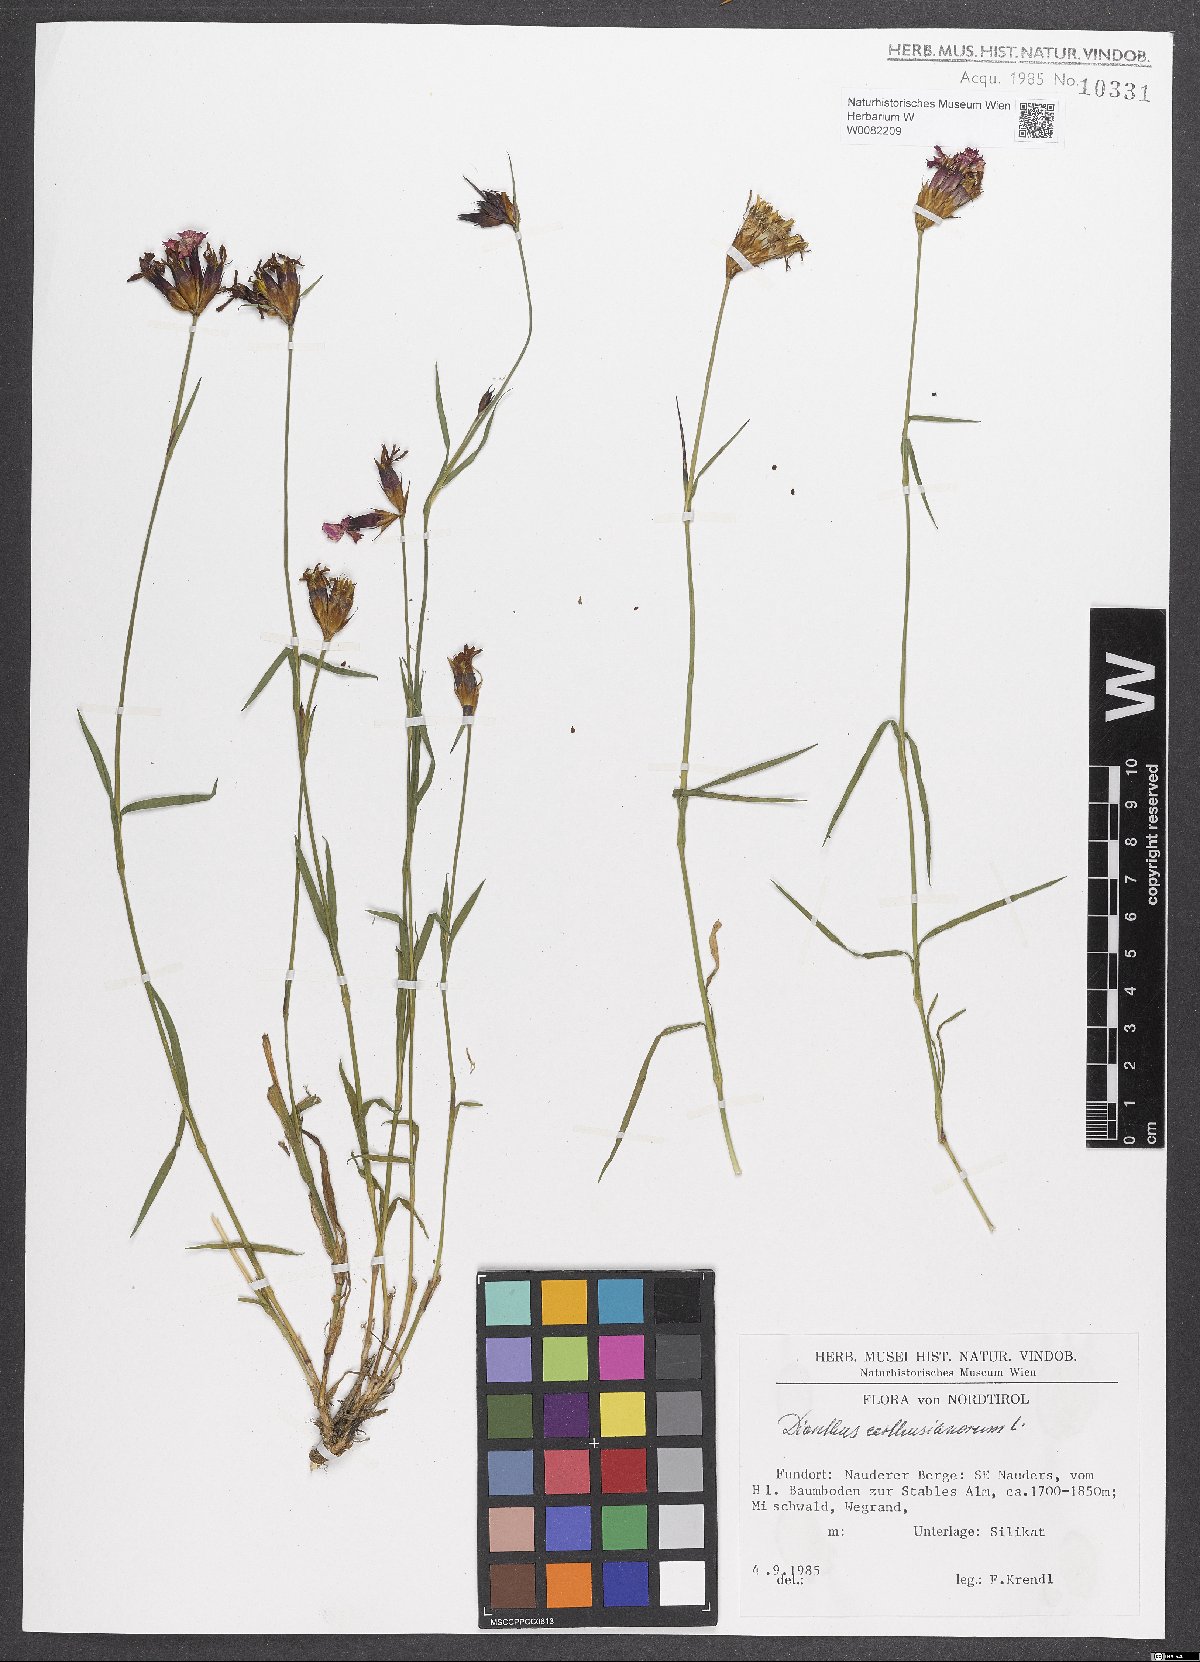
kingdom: Plantae
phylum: Tracheophyta
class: Magnoliopsida
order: Caryophyllales
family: Caryophyllaceae
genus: Dianthus
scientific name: Dianthus carthusianorum
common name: Carthusian pink
